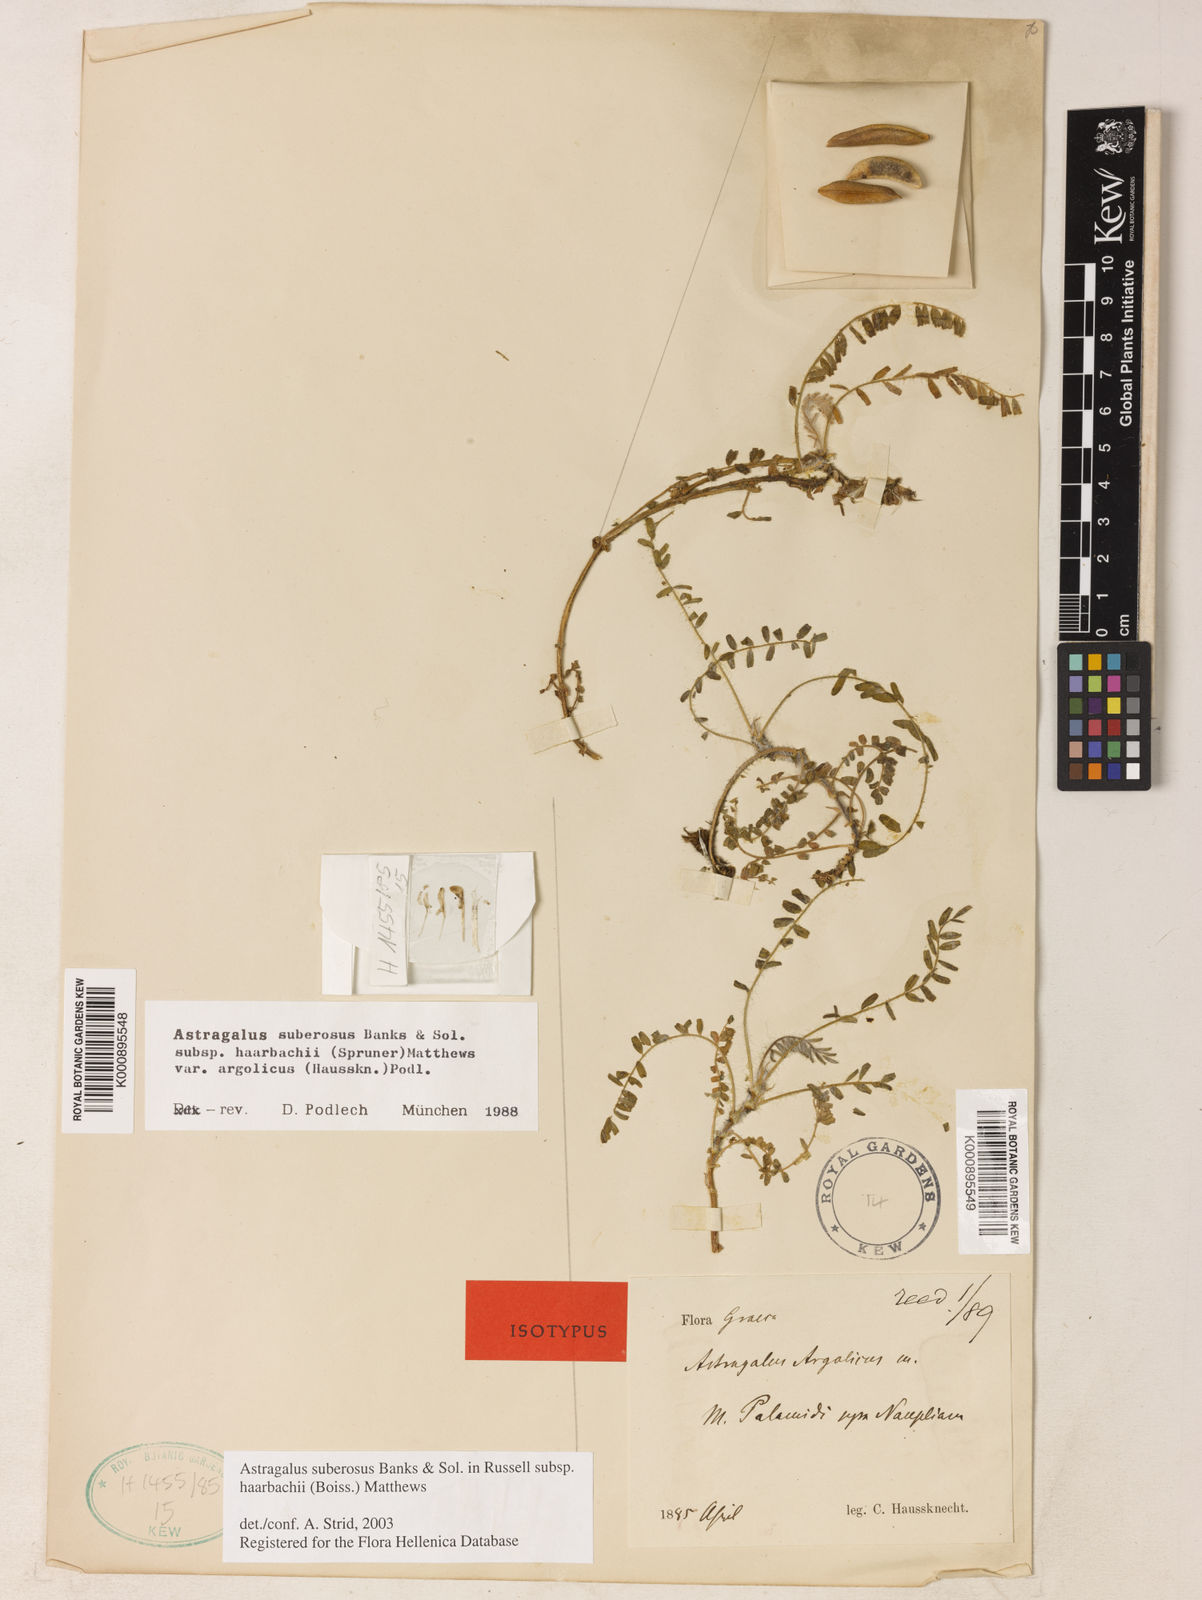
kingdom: Plantae
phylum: Tracheophyta
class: Magnoliopsida
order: Fabales
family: Fabaceae
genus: Astragalus
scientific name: Astragalus suberosus
